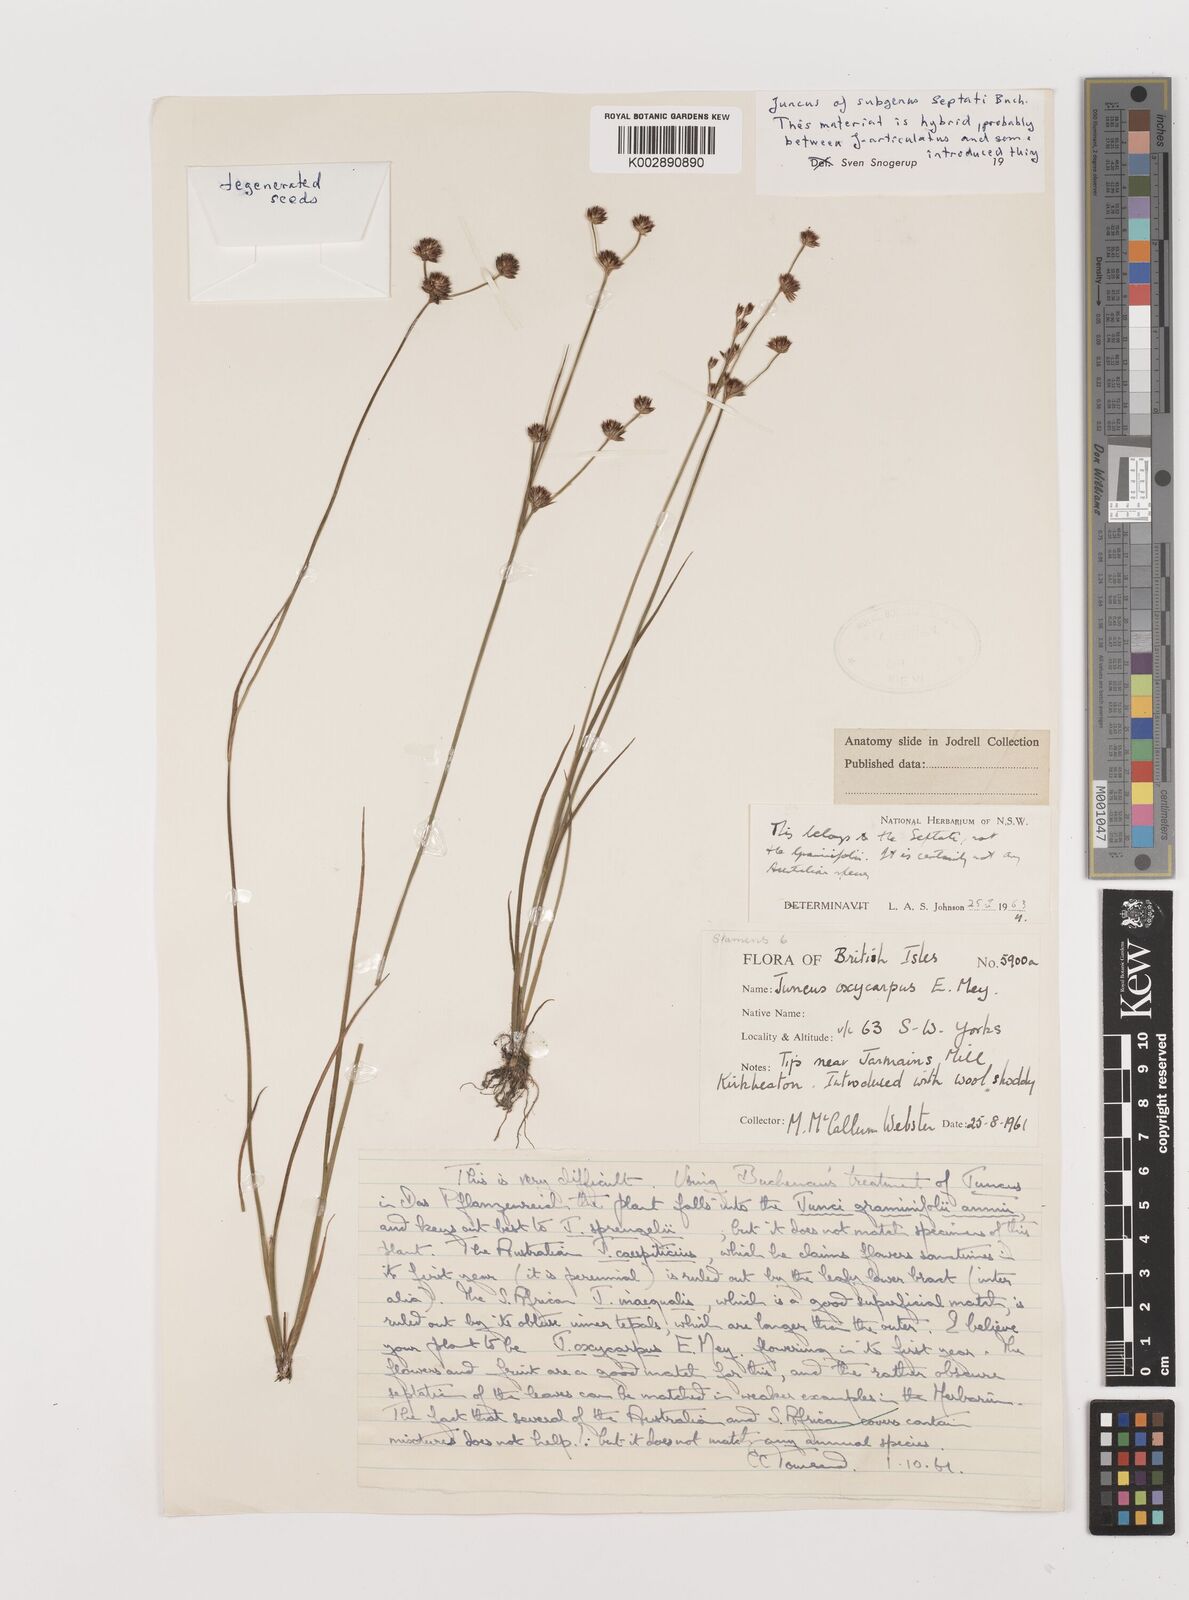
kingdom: Plantae
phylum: Tracheophyta
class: Liliopsida
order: Poales
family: Juncaceae
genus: Juncus
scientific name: Juncus
